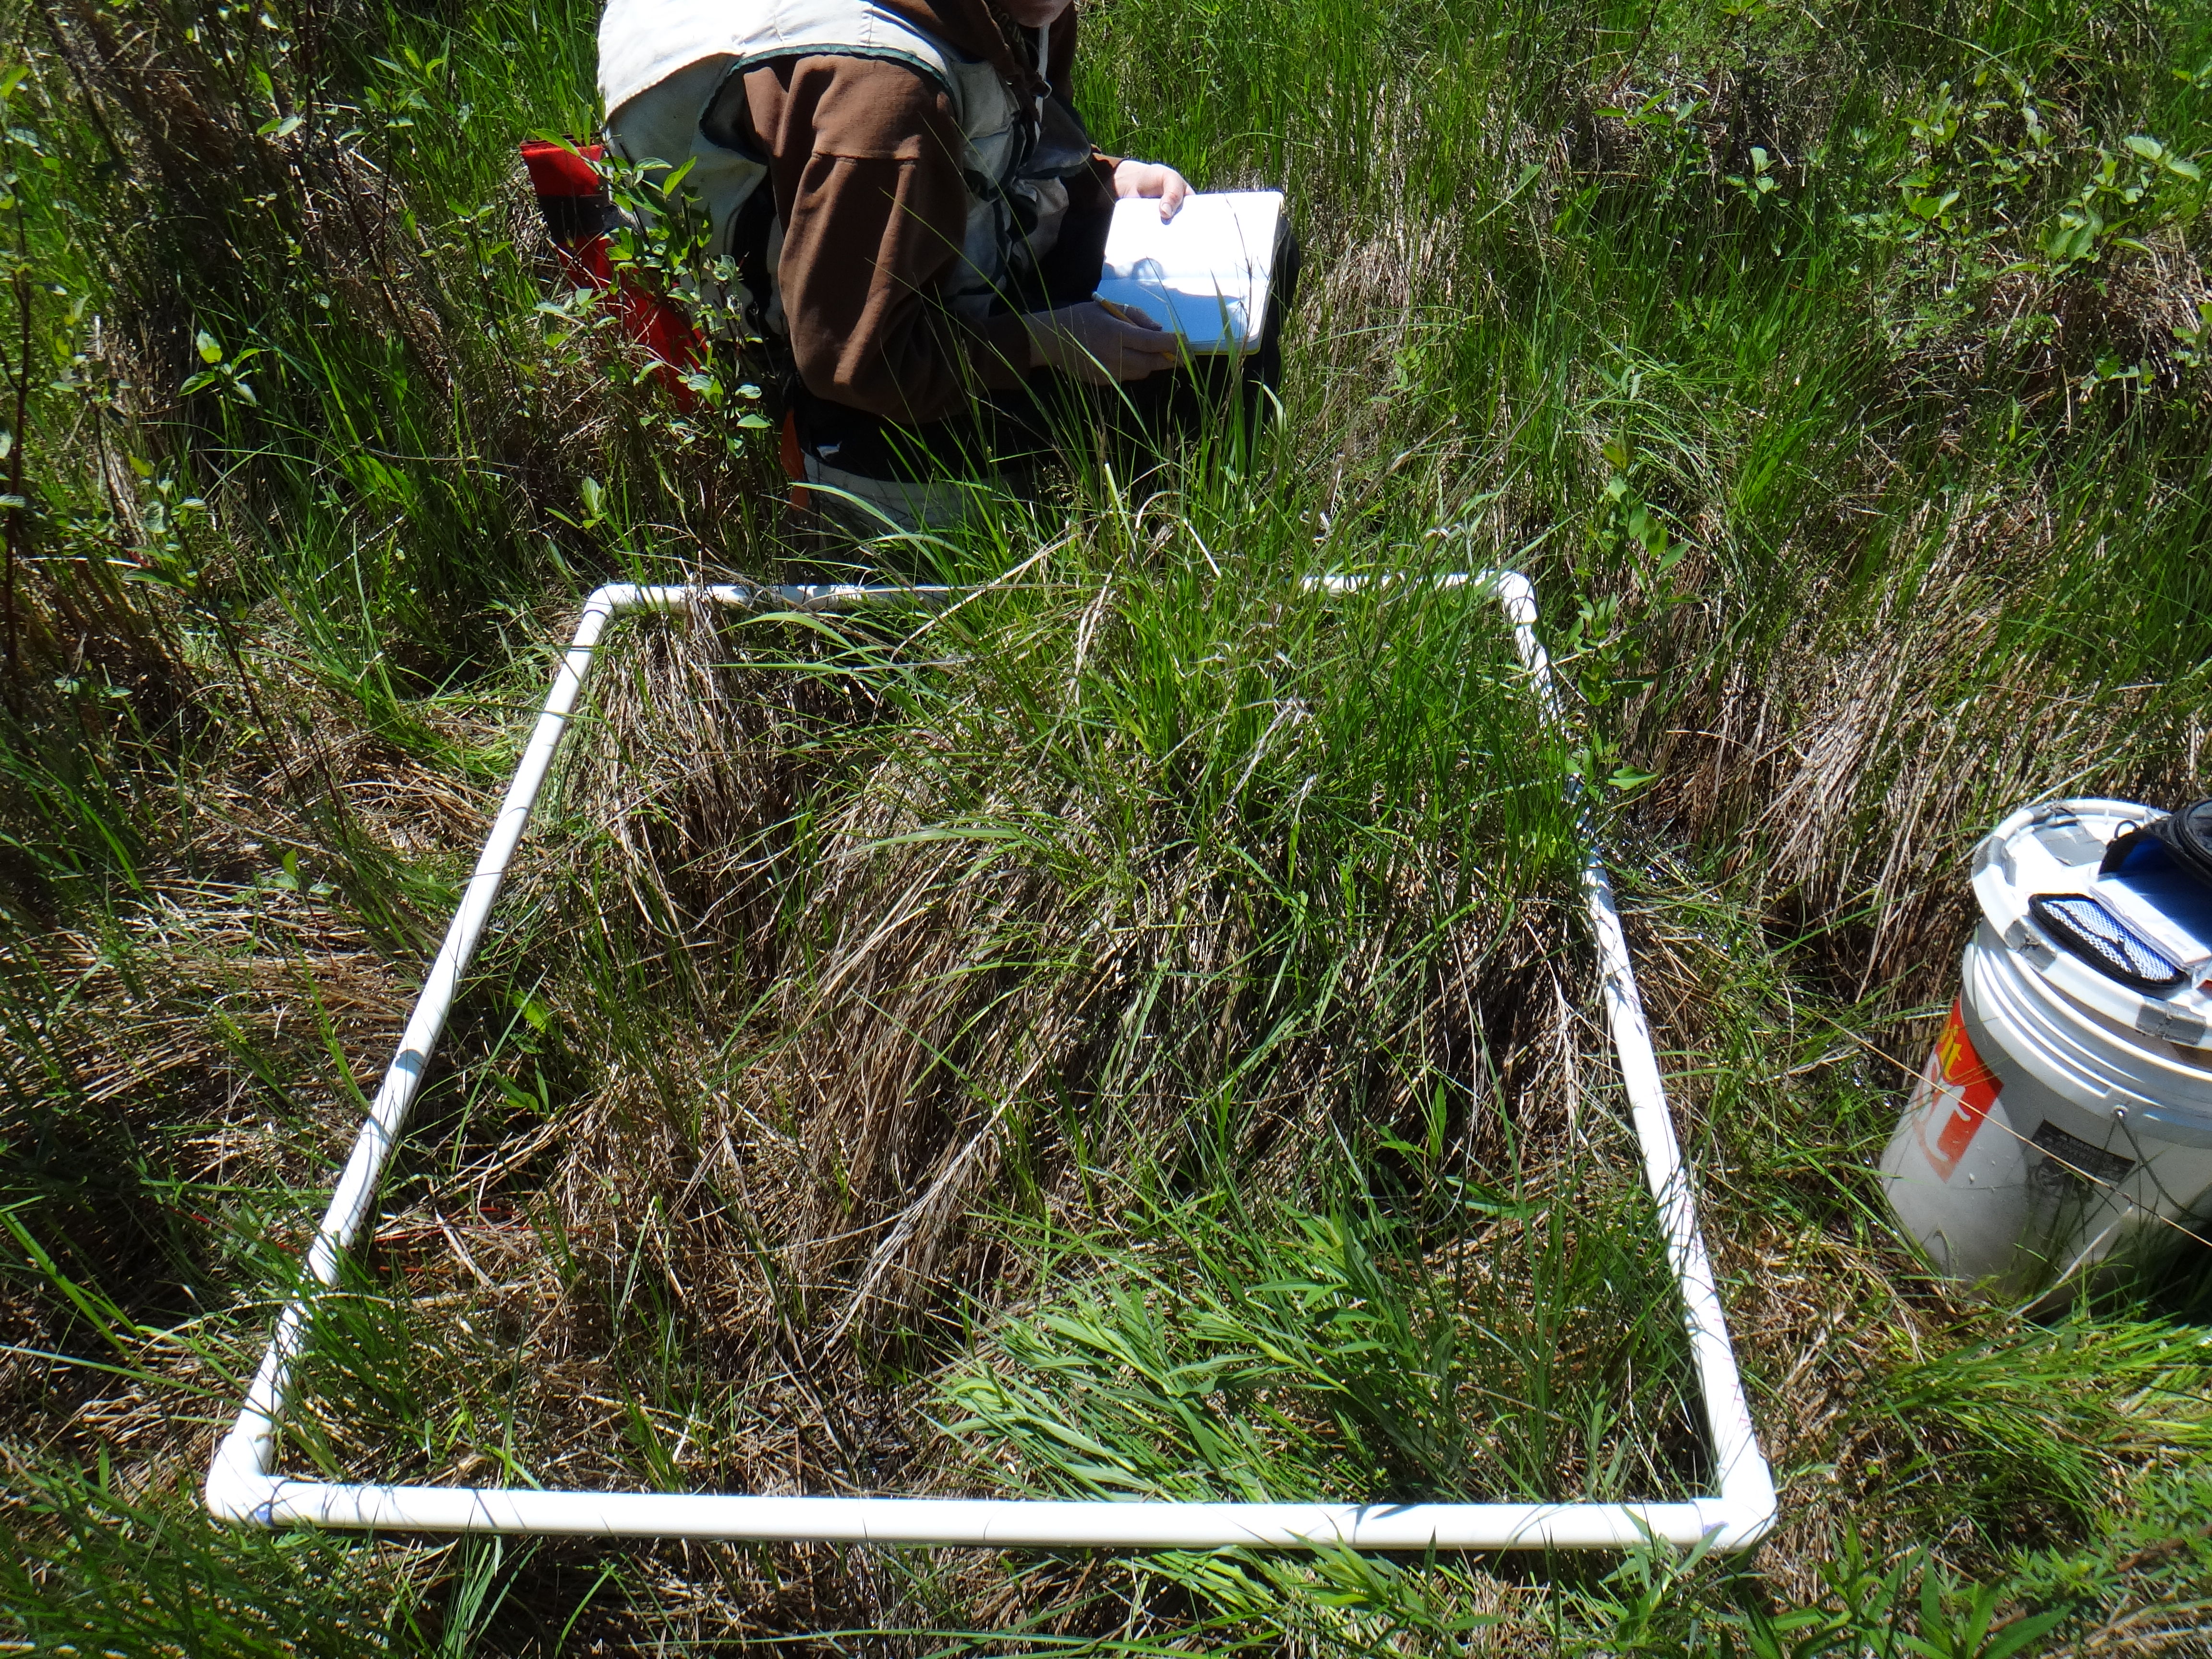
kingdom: Plantae
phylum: Tracheophyta
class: Magnoliopsida
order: Cornales
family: Cornaceae
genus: Cornus
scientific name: Cornus foemina
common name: Swamp dogwood
